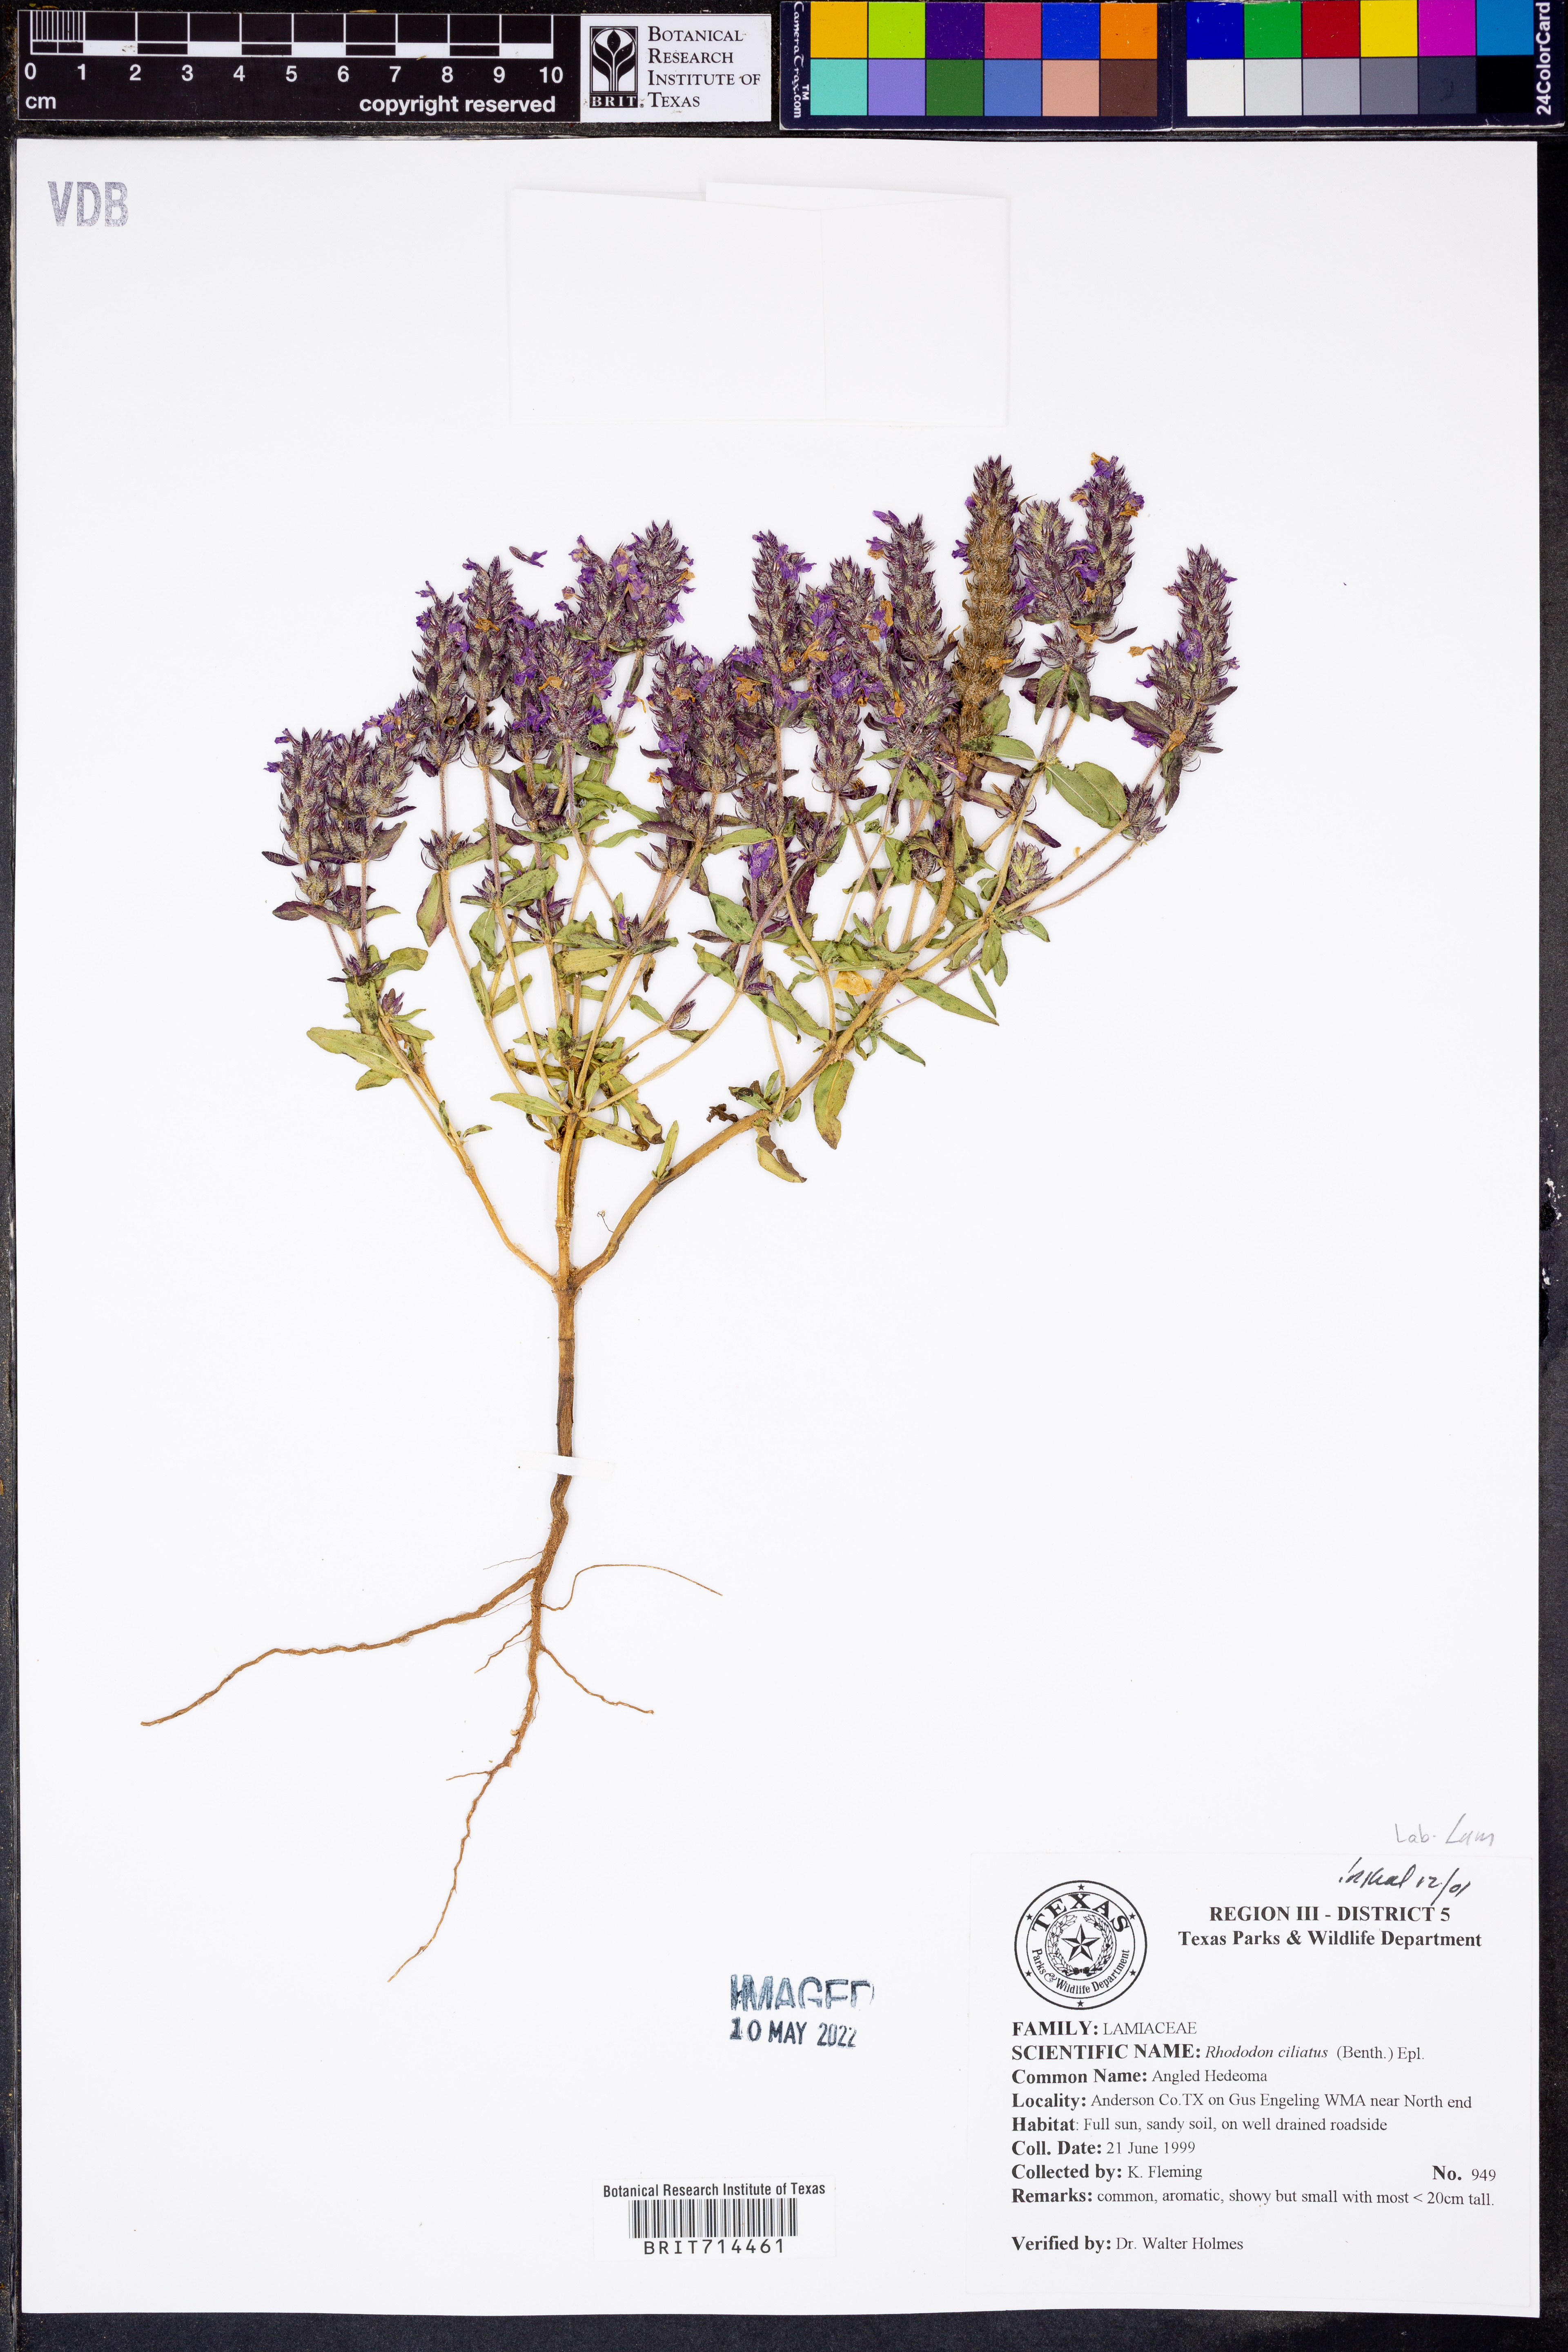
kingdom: Plantae
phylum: Tracheophyta
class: Magnoliopsida
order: Lamiales
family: Lamiaceae
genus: Rhododon
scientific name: Rhododon ciliatus
